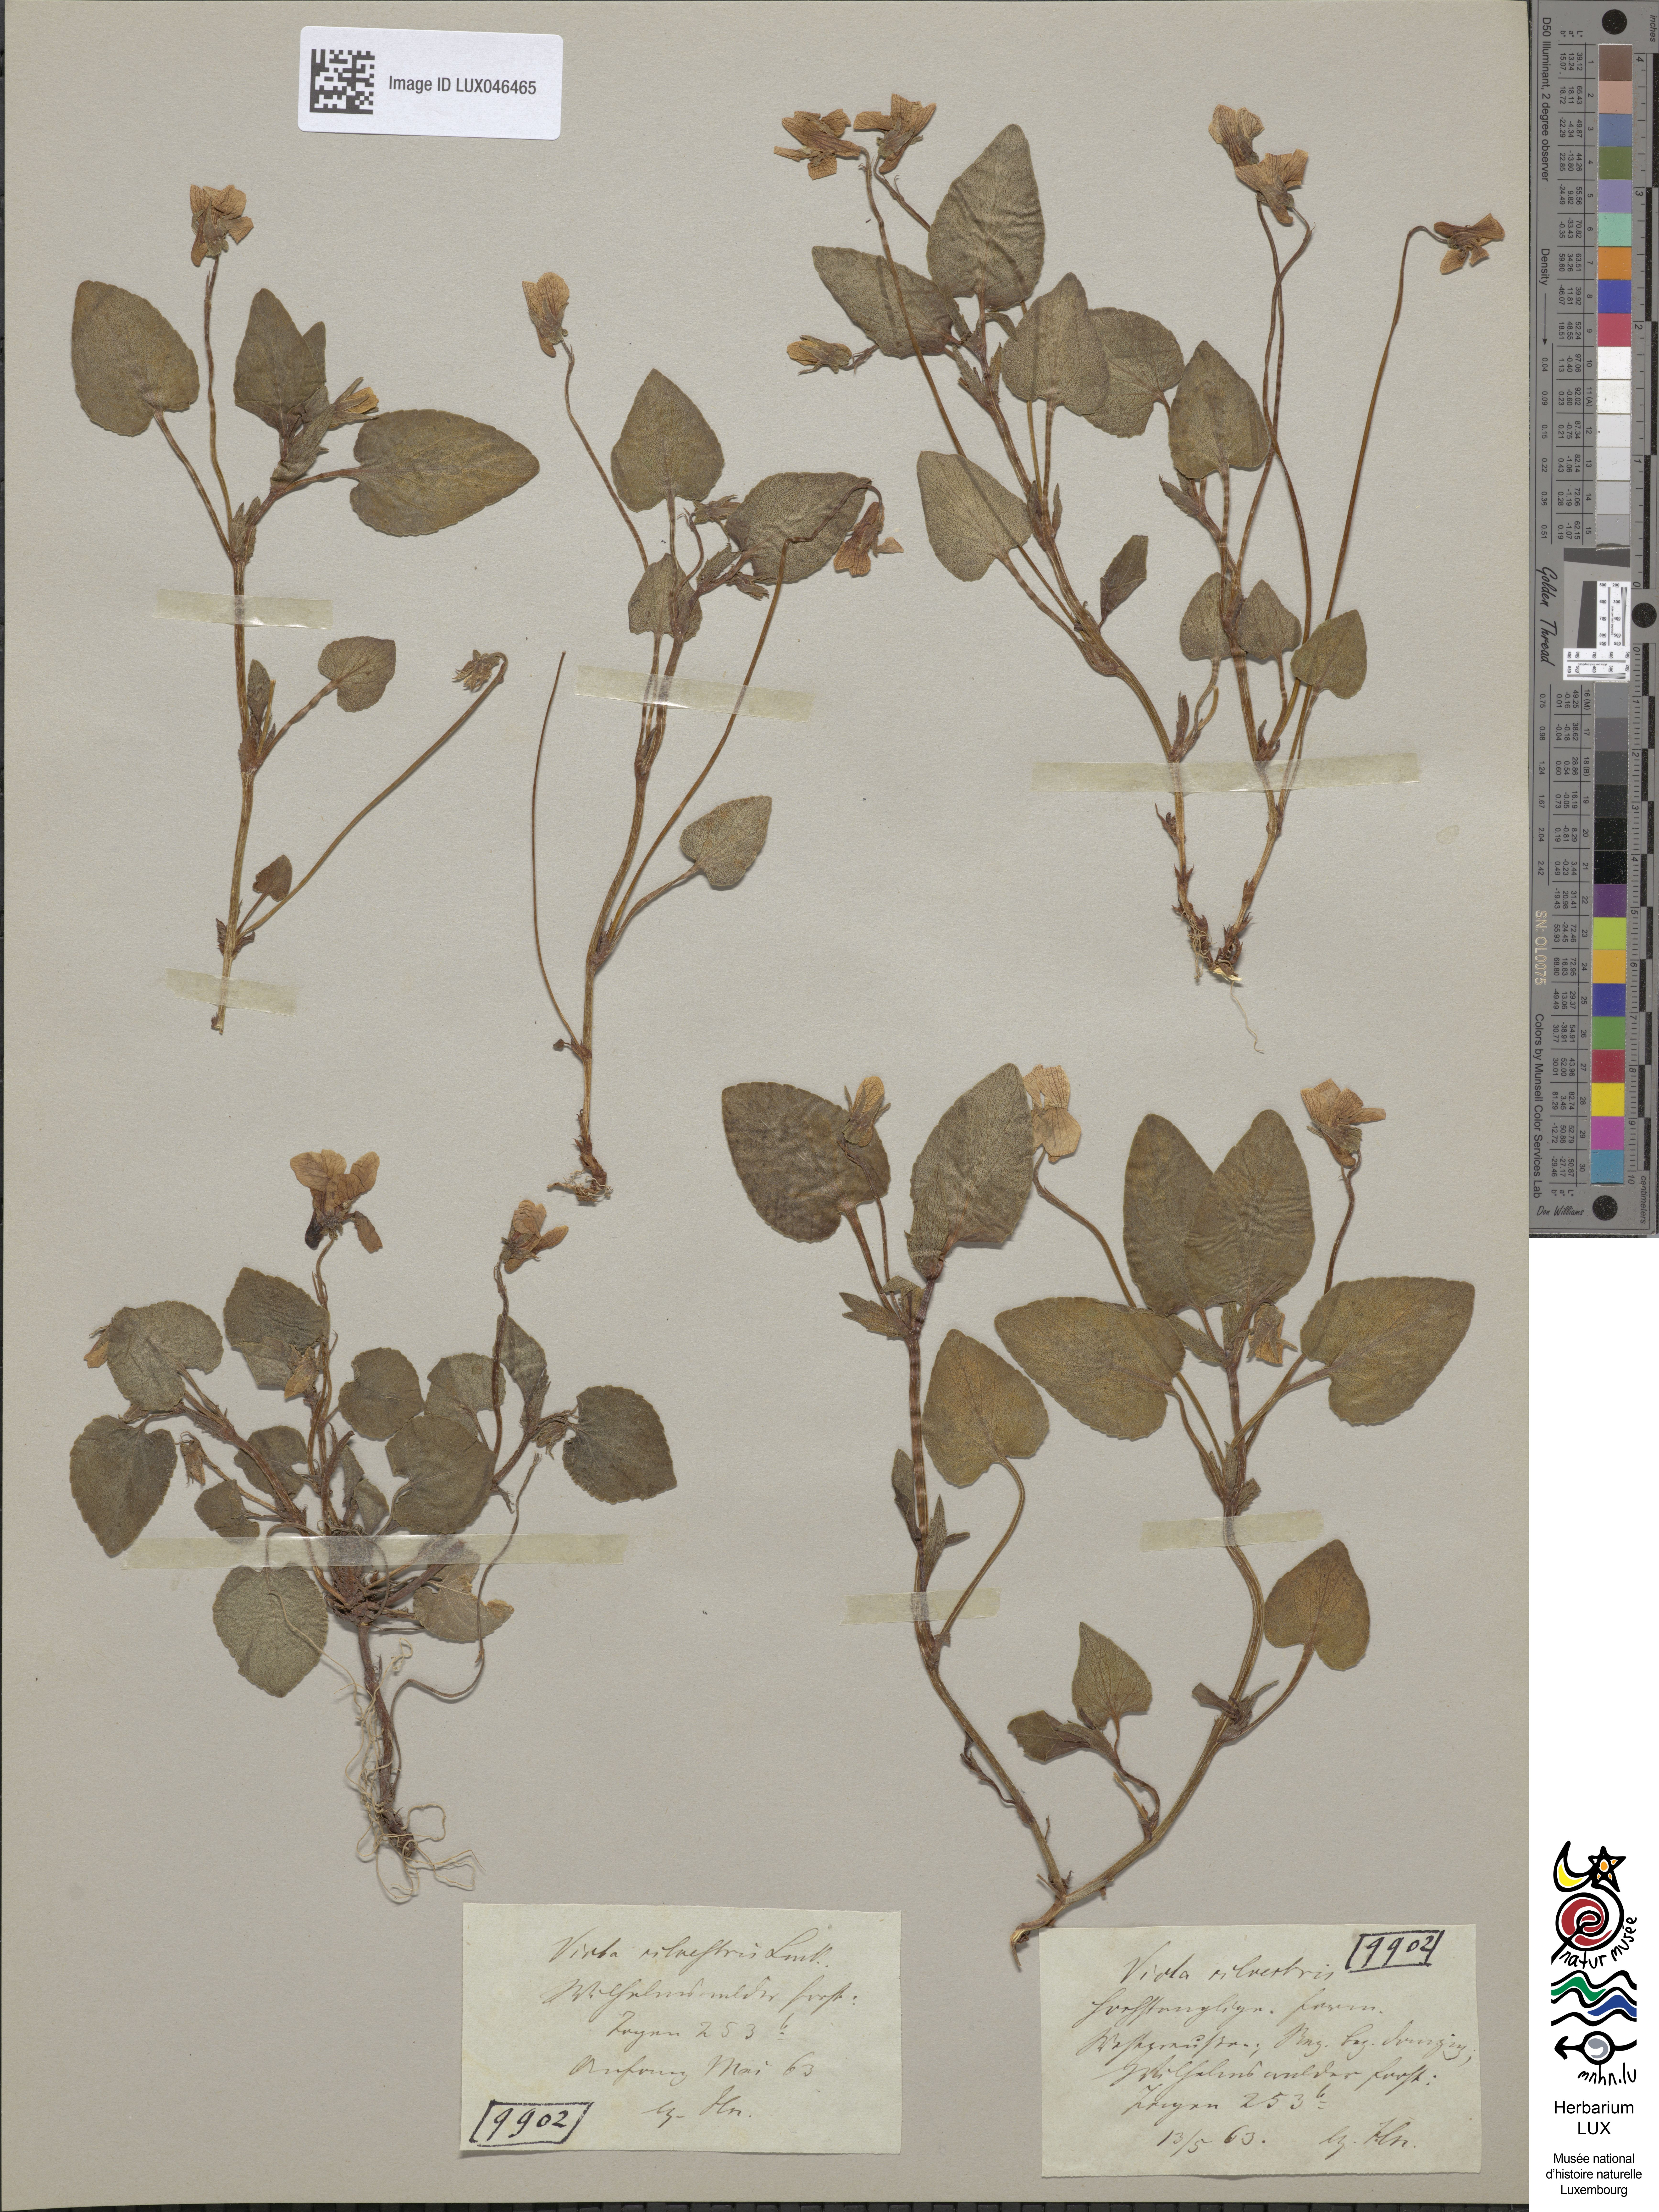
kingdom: Plantae
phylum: Tracheophyta
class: Magnoliopsida
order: Malpighiales
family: Violaceae
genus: Viola
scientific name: Viola reichenbachiana
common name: Early dog-violet
